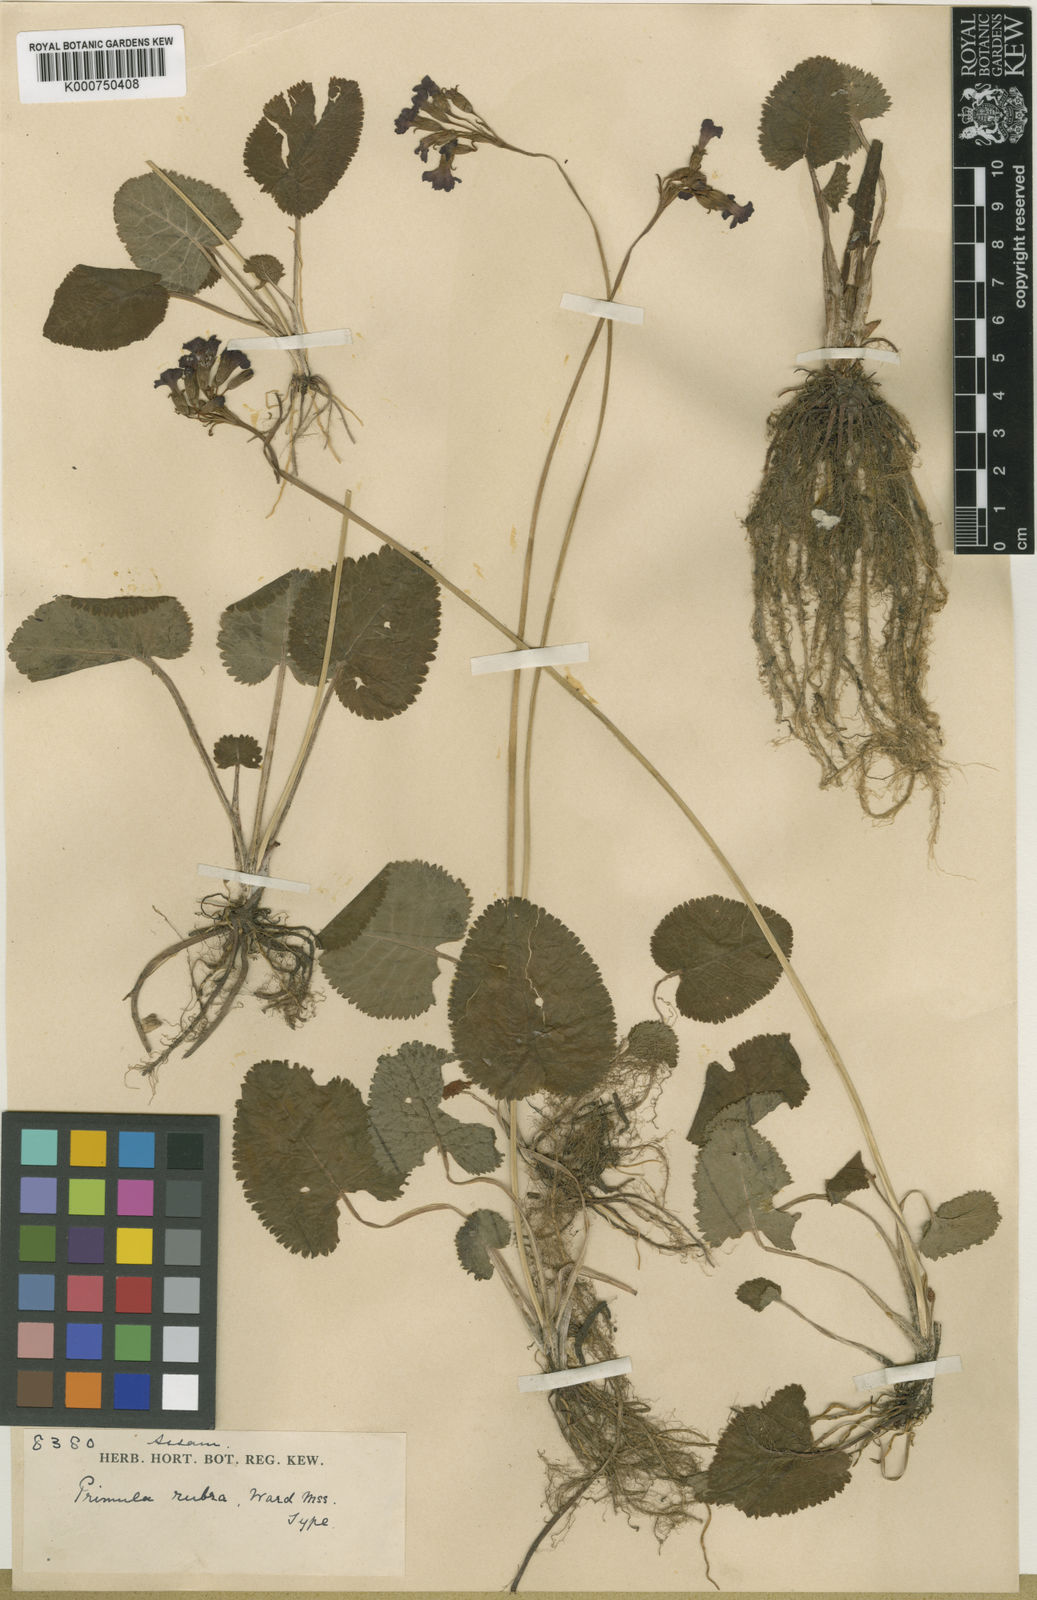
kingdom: Plantae
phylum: Tracheophyta
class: Magnoliopsida
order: Ericales
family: Primulaceae
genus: Primula
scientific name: Primula firmipes
